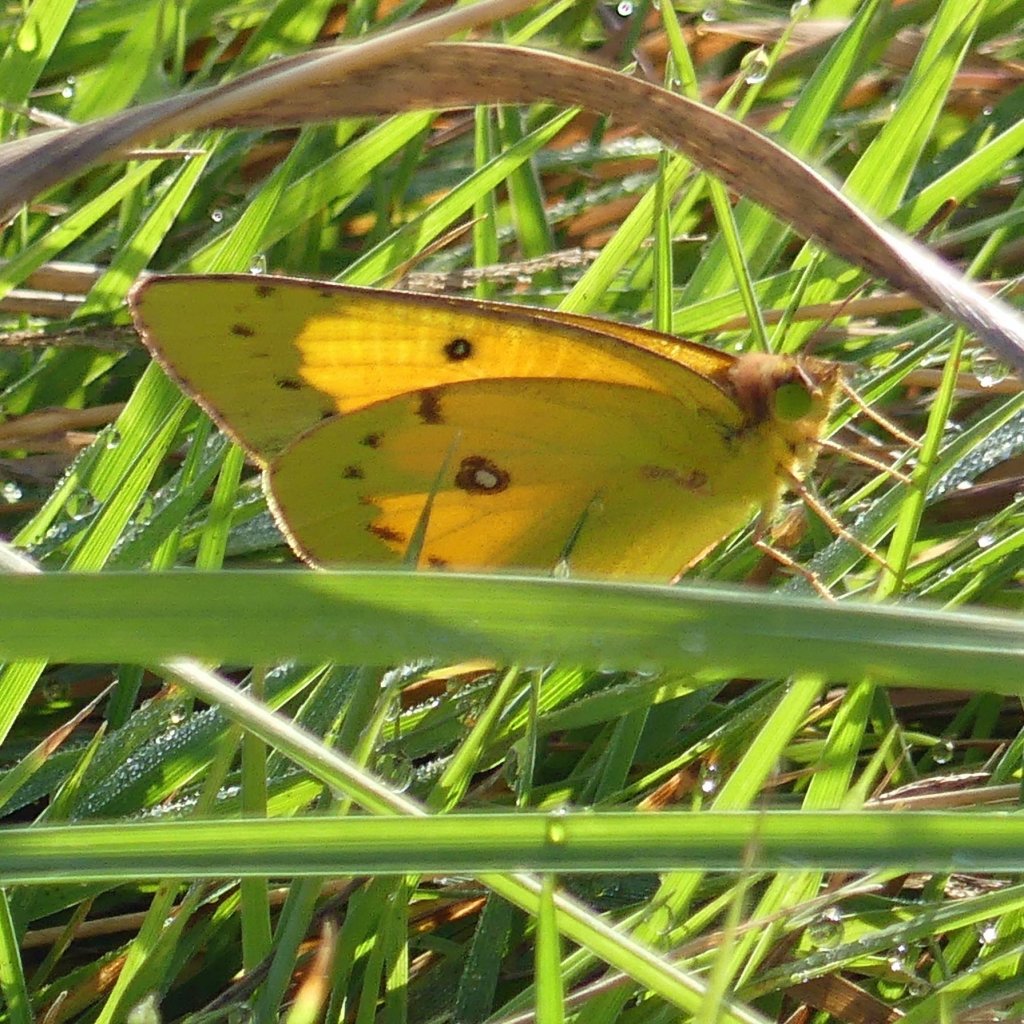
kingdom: Animalia
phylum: Arthropoda
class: Insecta
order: Lepidoptera
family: Pieridae
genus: Colias
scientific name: Colias eurytheme
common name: Orange Sulphur
